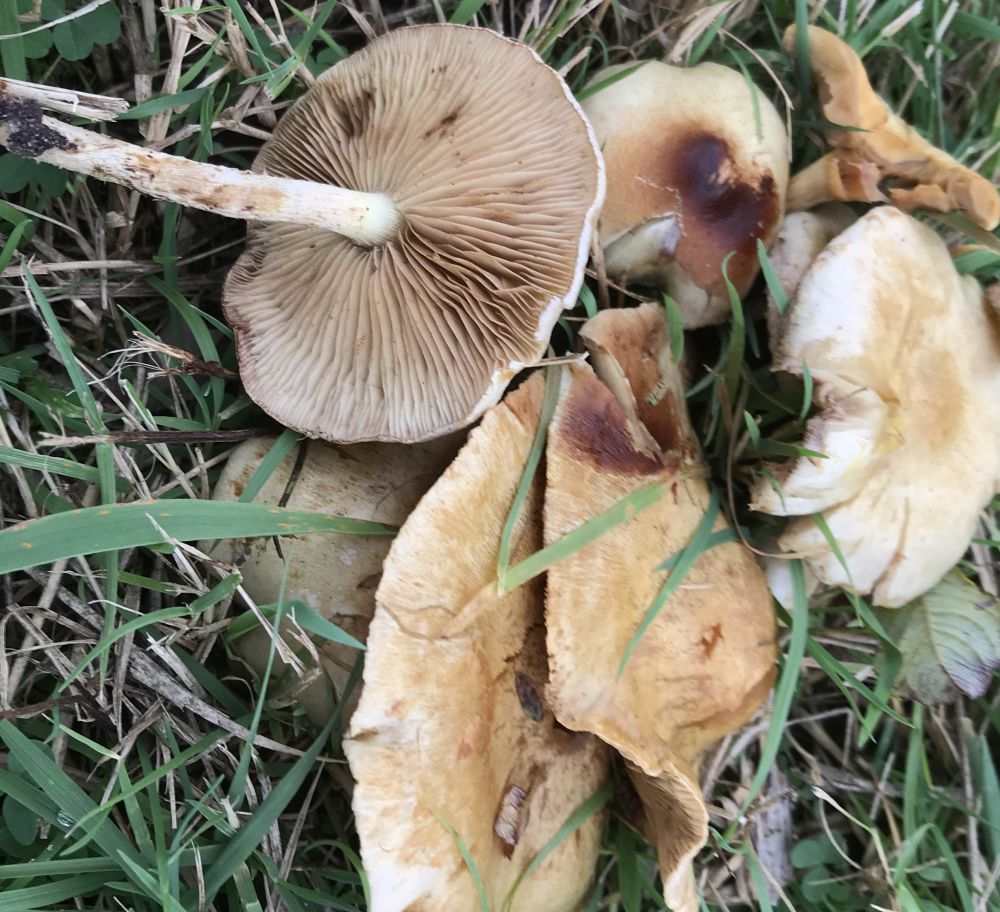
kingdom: Fungi
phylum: Basidiomycota
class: Agaricomycetes
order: Agaricales
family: Strophariaceae
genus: Pholiota
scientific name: Pholiota gummosa
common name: grøngul skælhat
